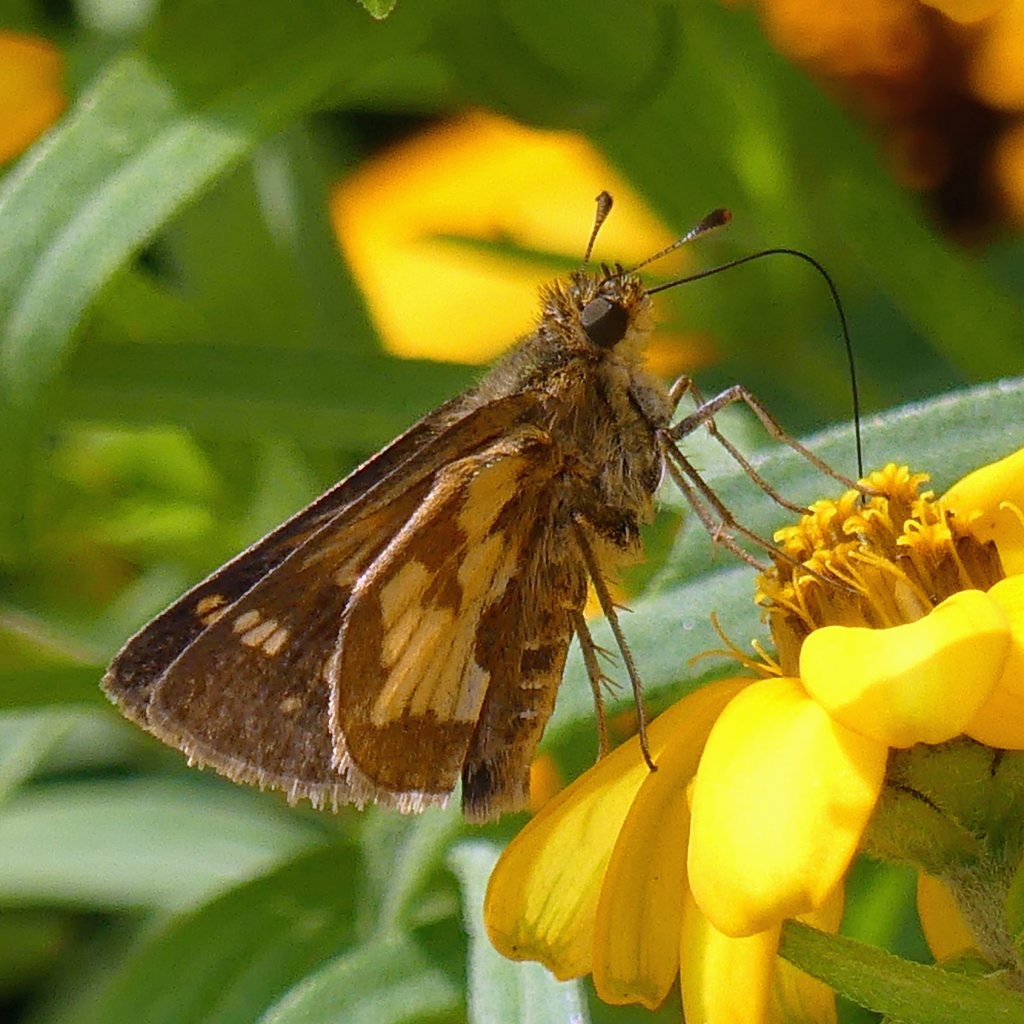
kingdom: Animalia
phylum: Arthropoda
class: Insecta
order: Lepidoptera
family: Hesperiidae
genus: Polites
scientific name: Polites coras
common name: Peck's Skipper
